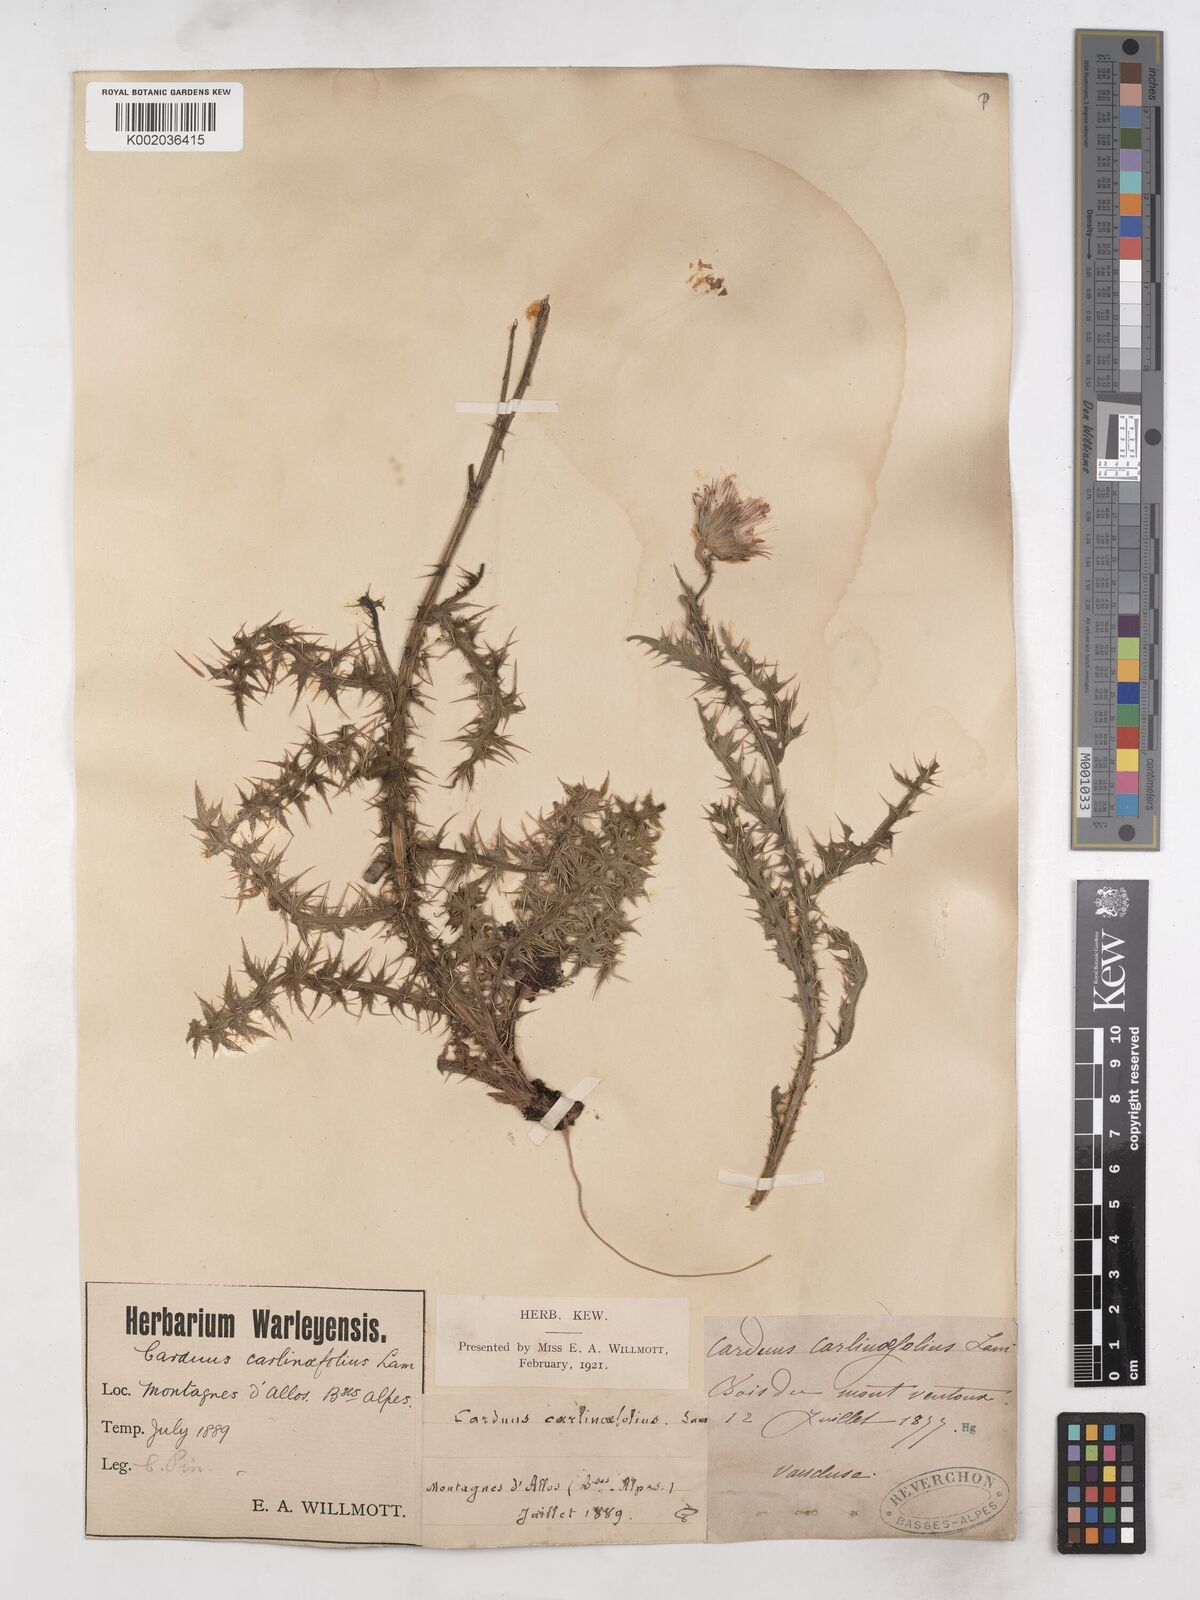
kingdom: Plantae
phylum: Tracheophyta
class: Magnoliopsida
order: Asterales
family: Asteraceae
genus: Carduus
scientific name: Carduus carlinifolius
